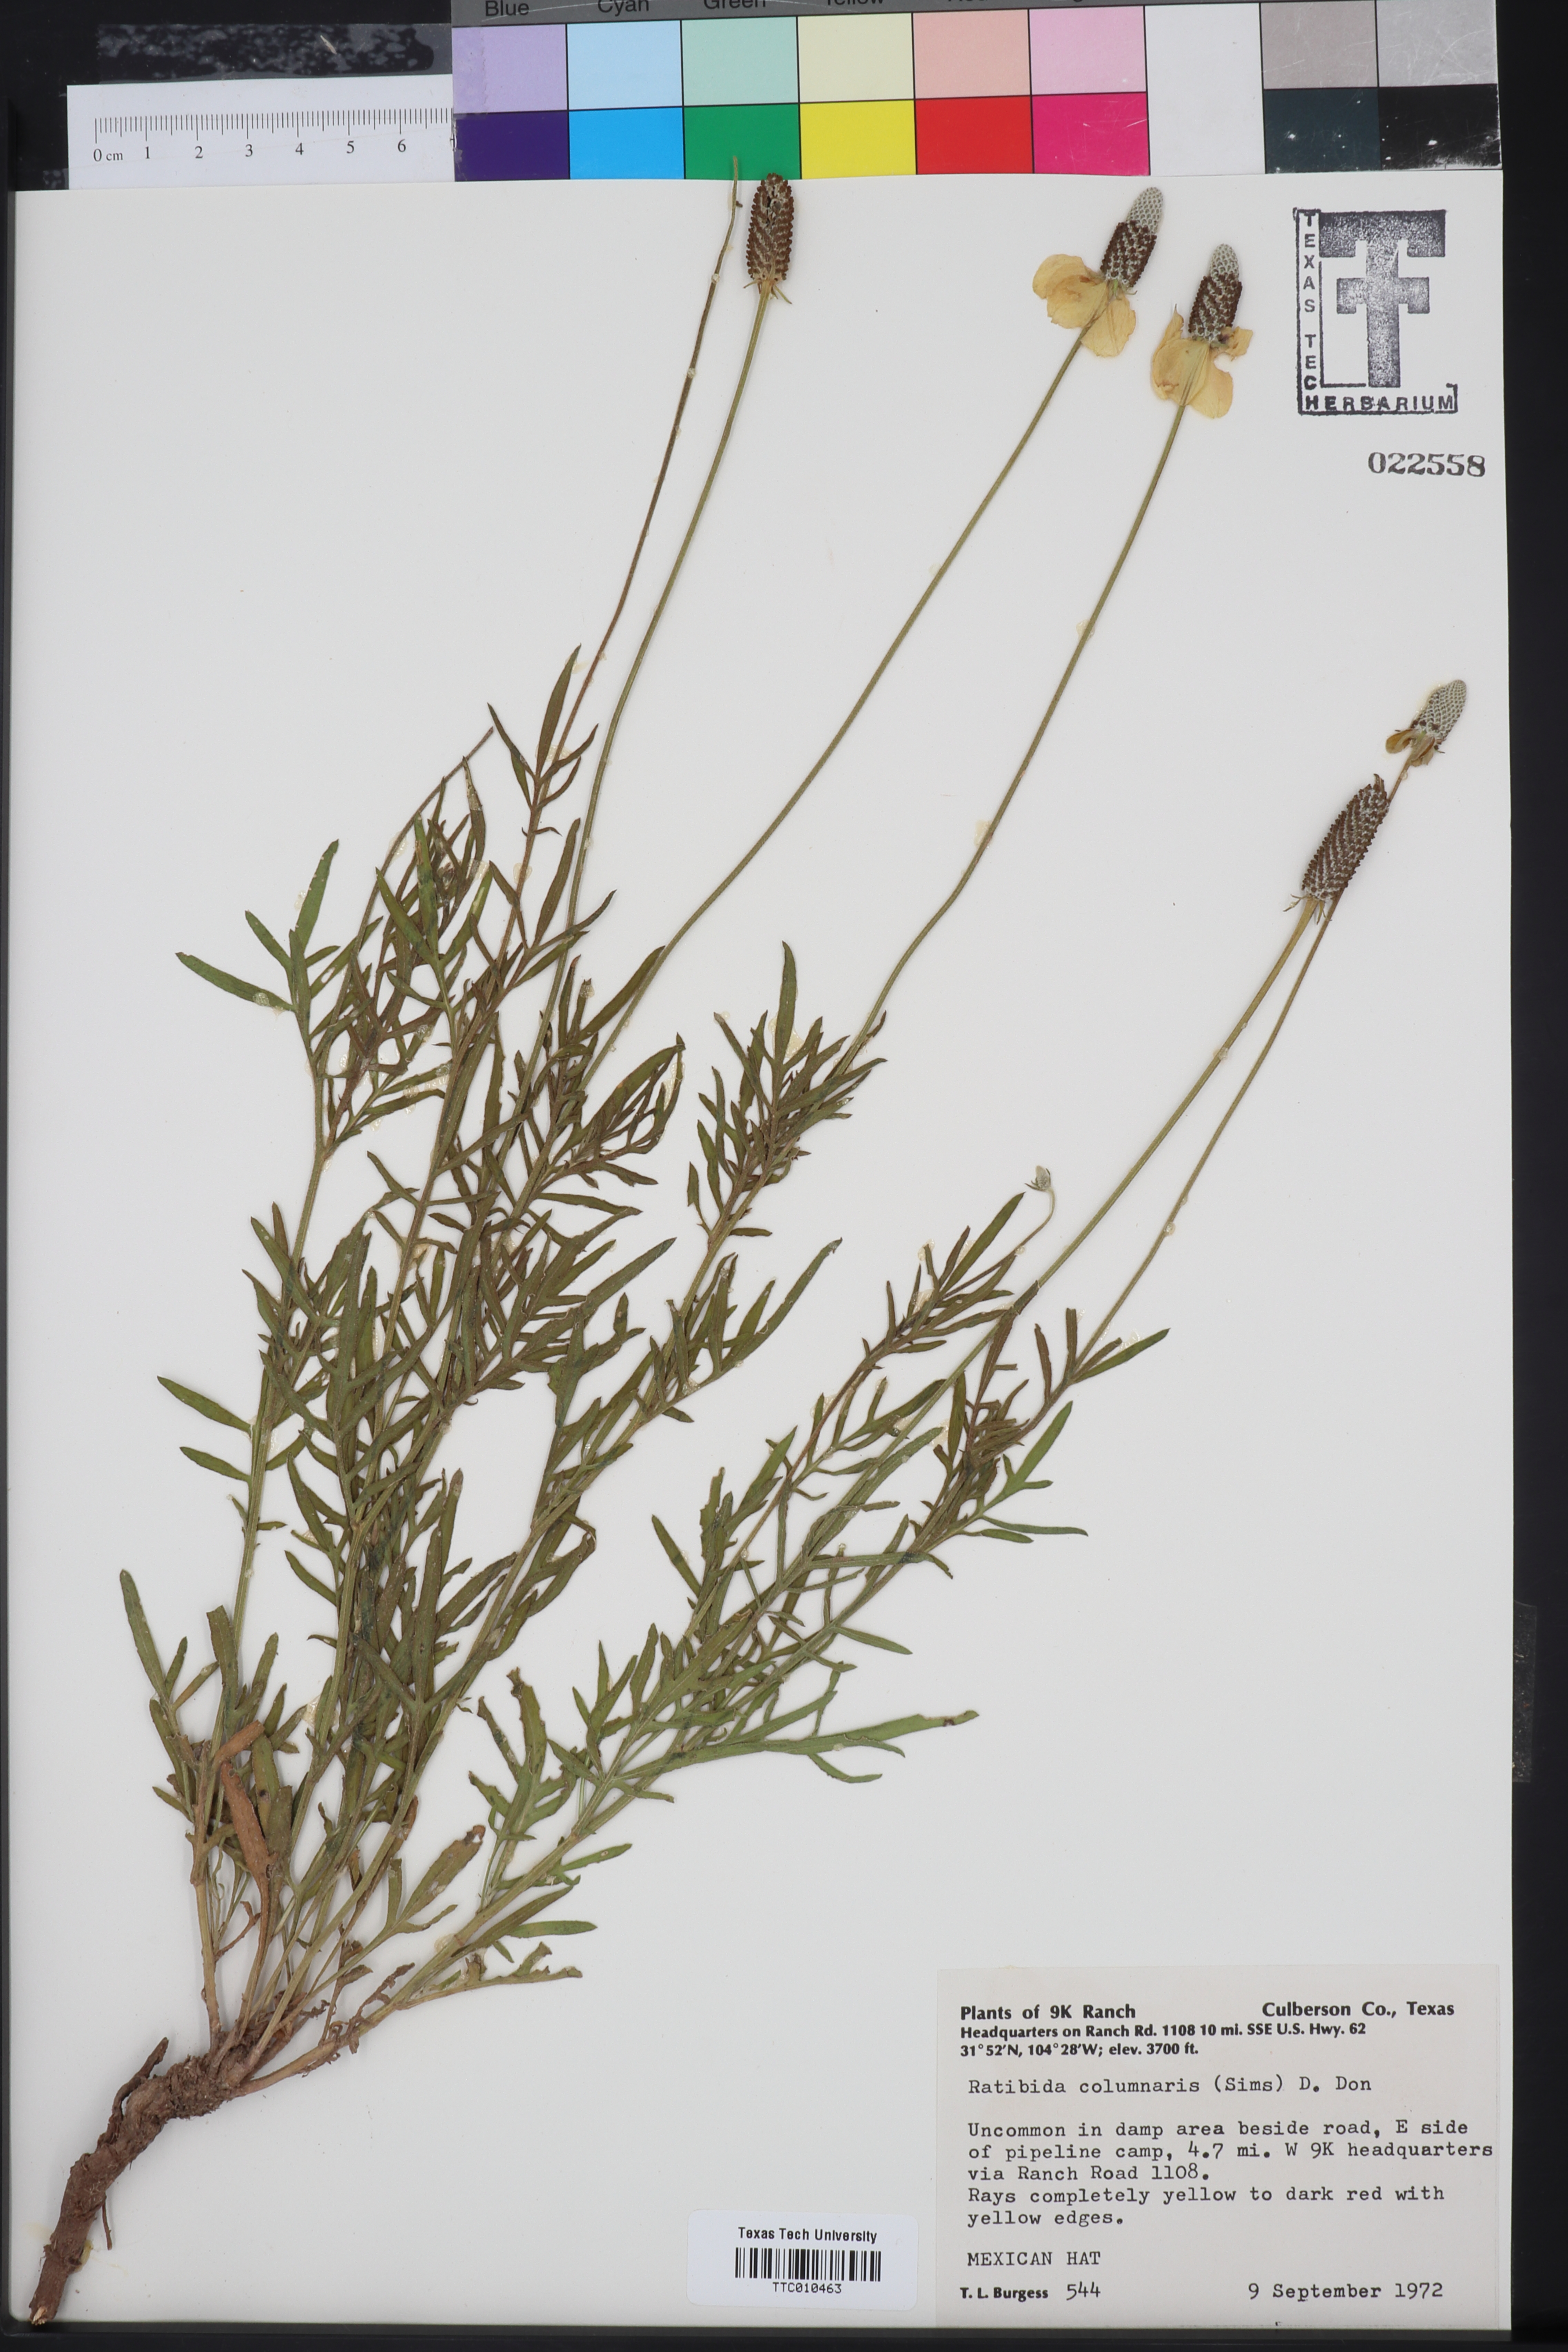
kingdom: Plantae
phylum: Tracheophyta
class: Magnoliopsida
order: Asterales
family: Asteraceae
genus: Ratibida
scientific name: Ratibida columnifera
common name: Prairie coneflower
